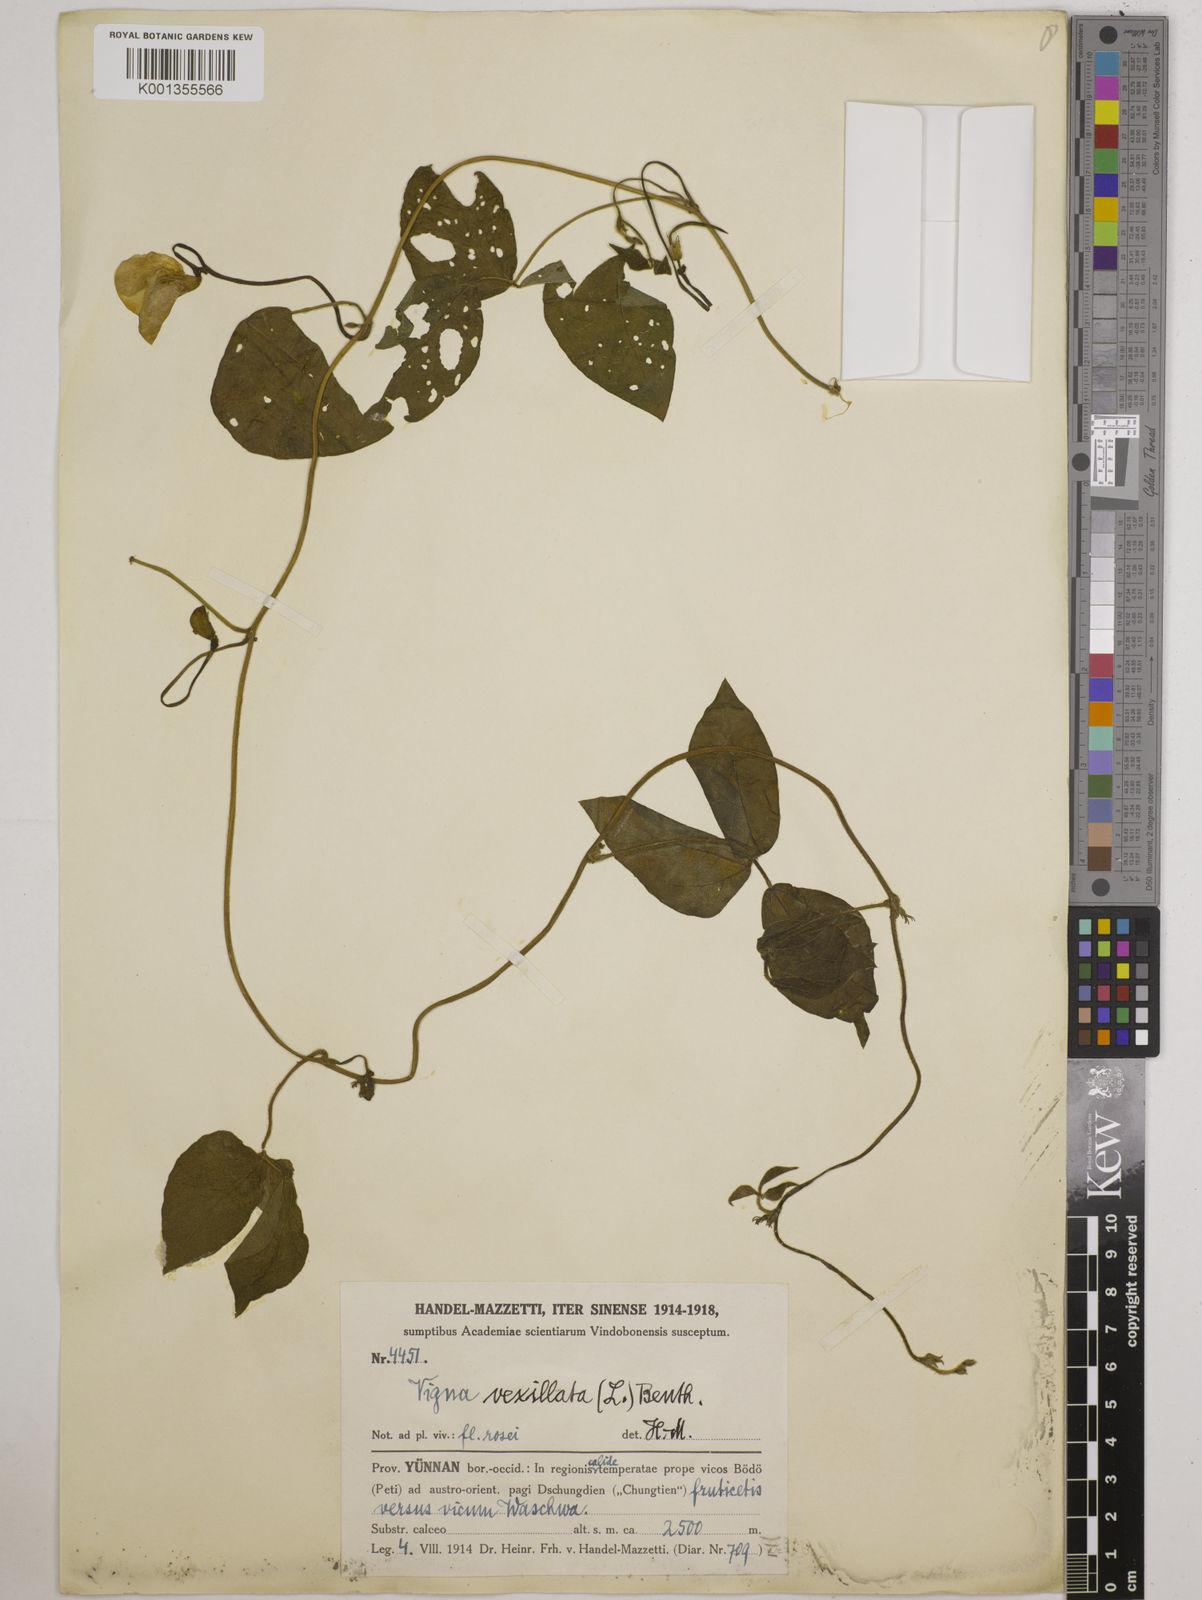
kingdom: Plantae
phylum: Tracheophyta
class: Magnoliopsida
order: Fabales
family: Fabaceae
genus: Vigna
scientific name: Vigna vexillata
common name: Zombi pea
